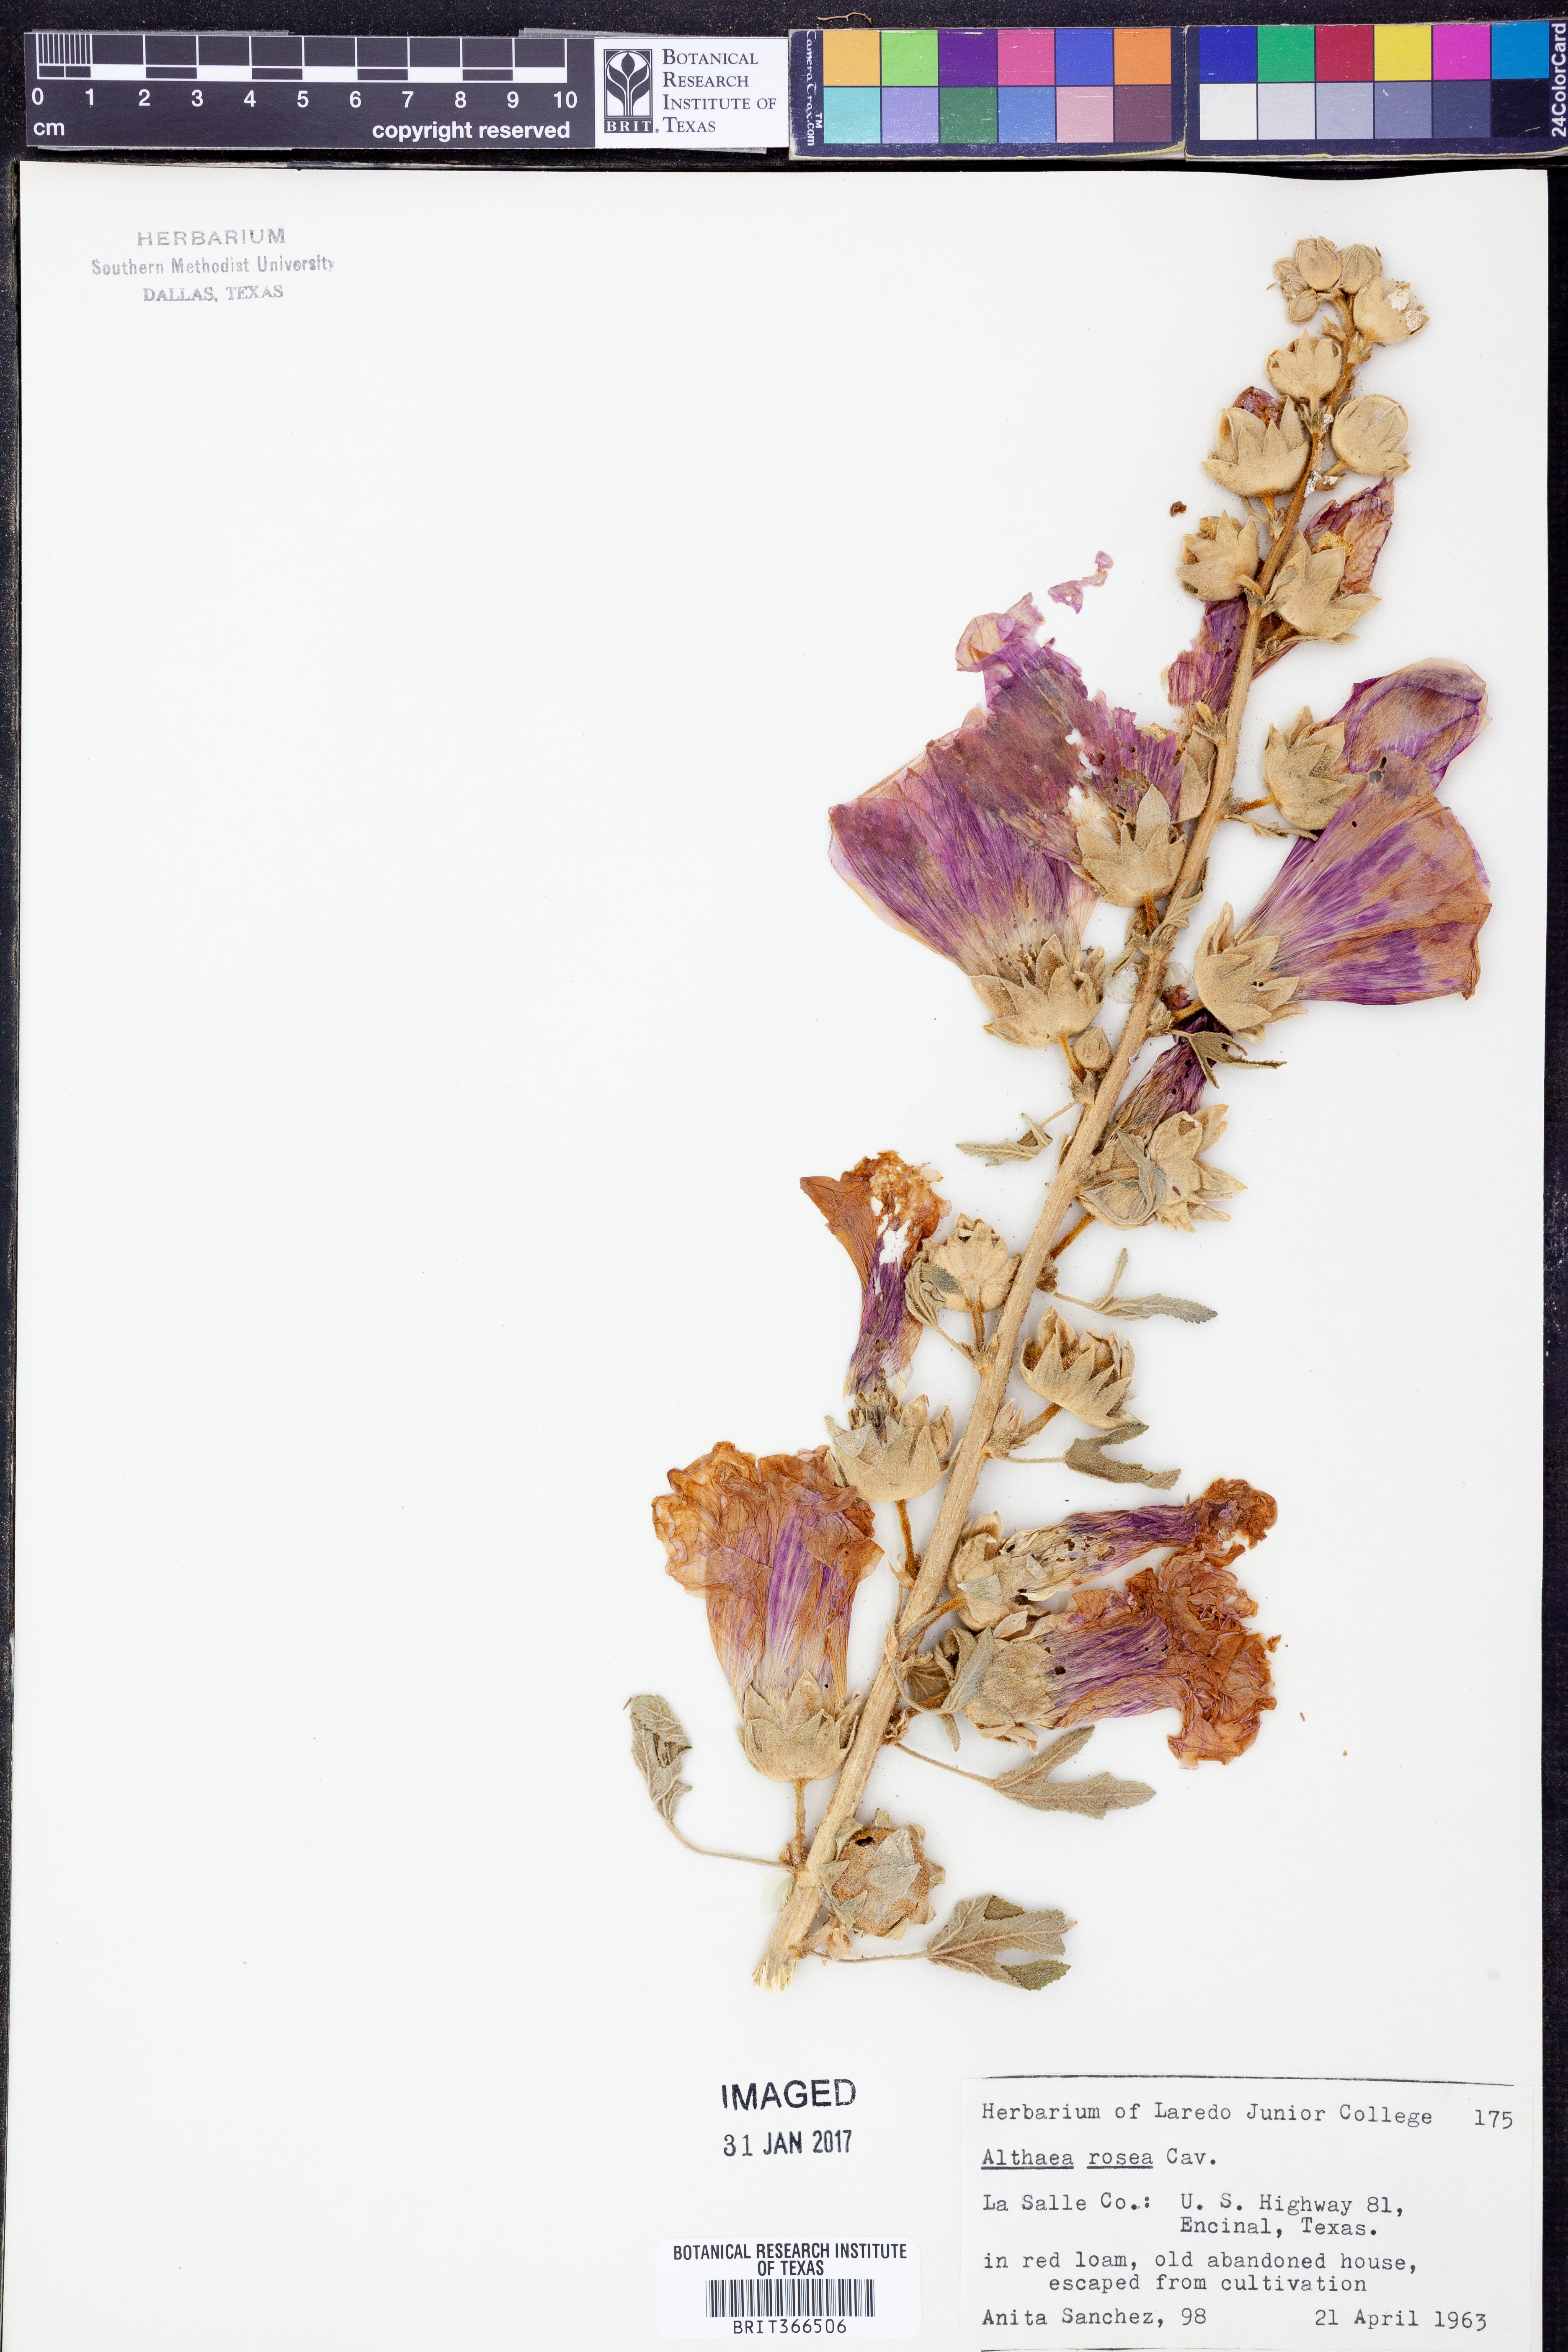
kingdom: Plantae
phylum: Tracheophyta
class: Magnoliopsida
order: Malvales
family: Malvaceae
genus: Alcea
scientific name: Alcea rosea
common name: Hollyhock
